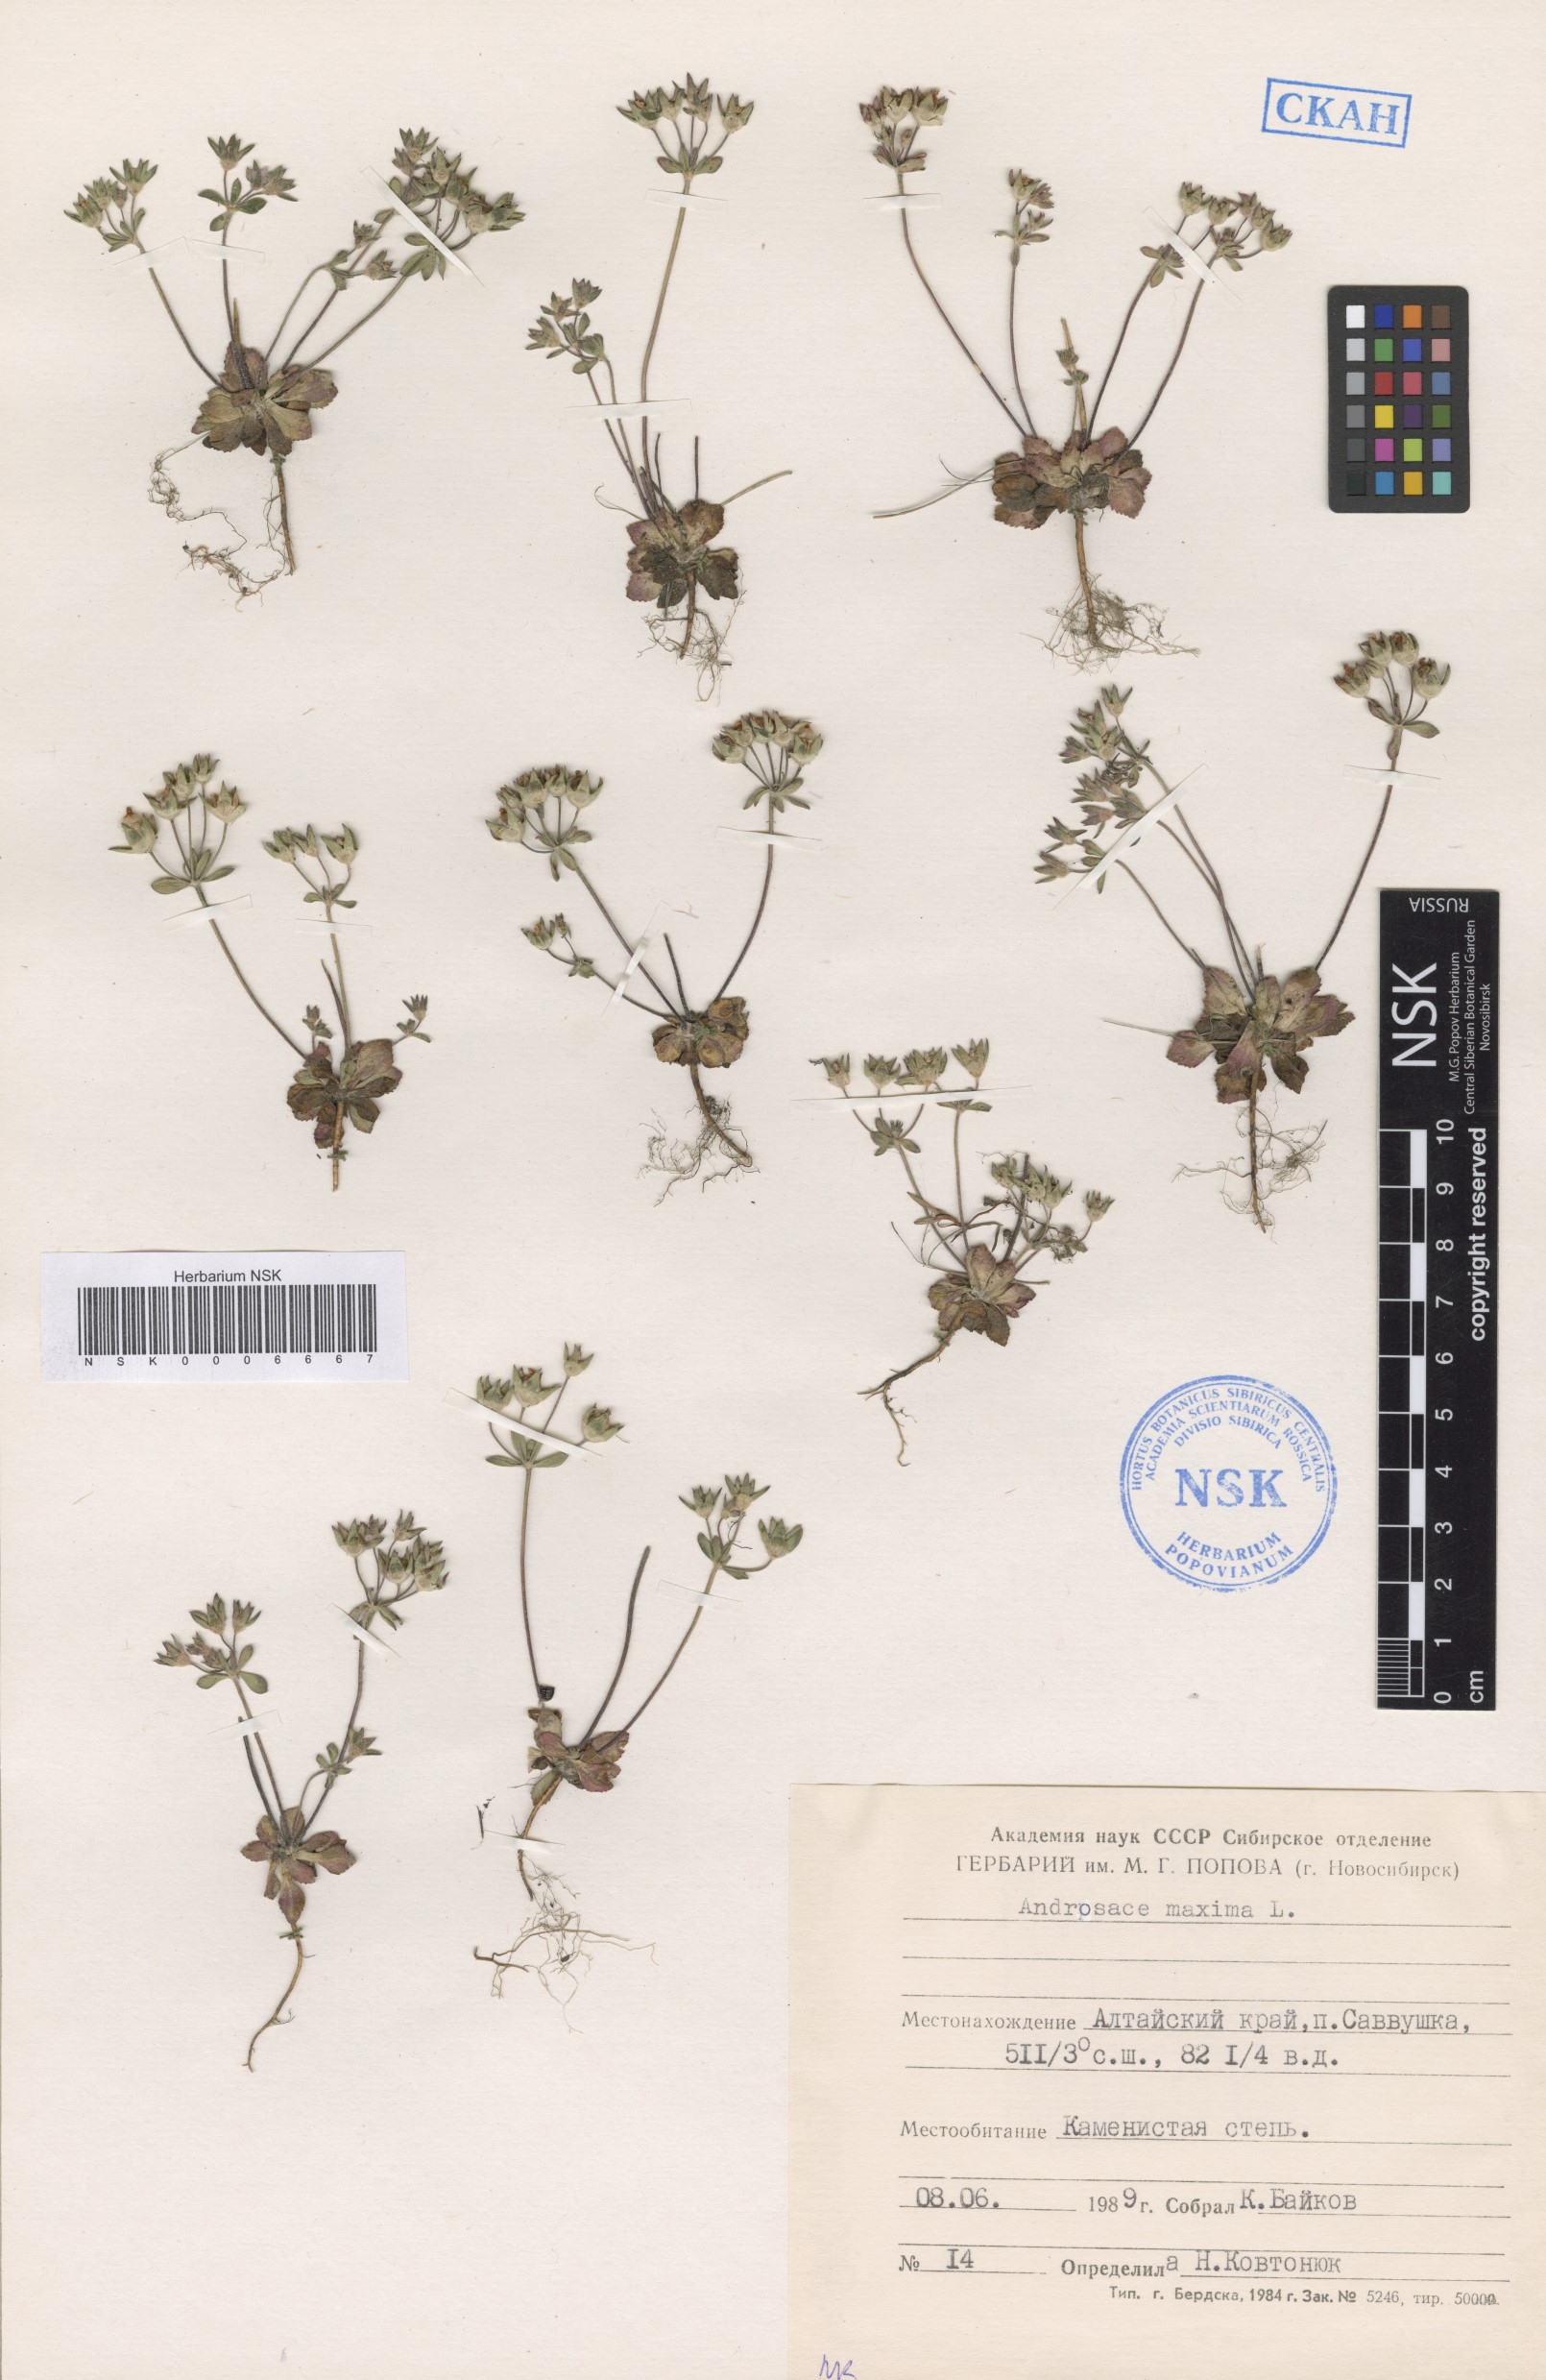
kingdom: Plantae
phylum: Tracheophyta
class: Magnoliopsida
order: Ericales
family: Primulaceae
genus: Androsace
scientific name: Androsace maxima
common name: Annual androsace
